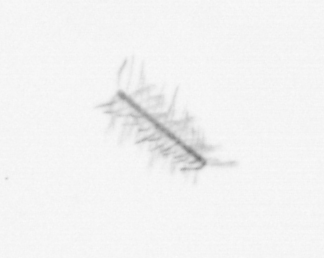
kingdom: Chromista
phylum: Ochrophyta
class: Bacillariophyceae
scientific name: Bacillariophyceae
